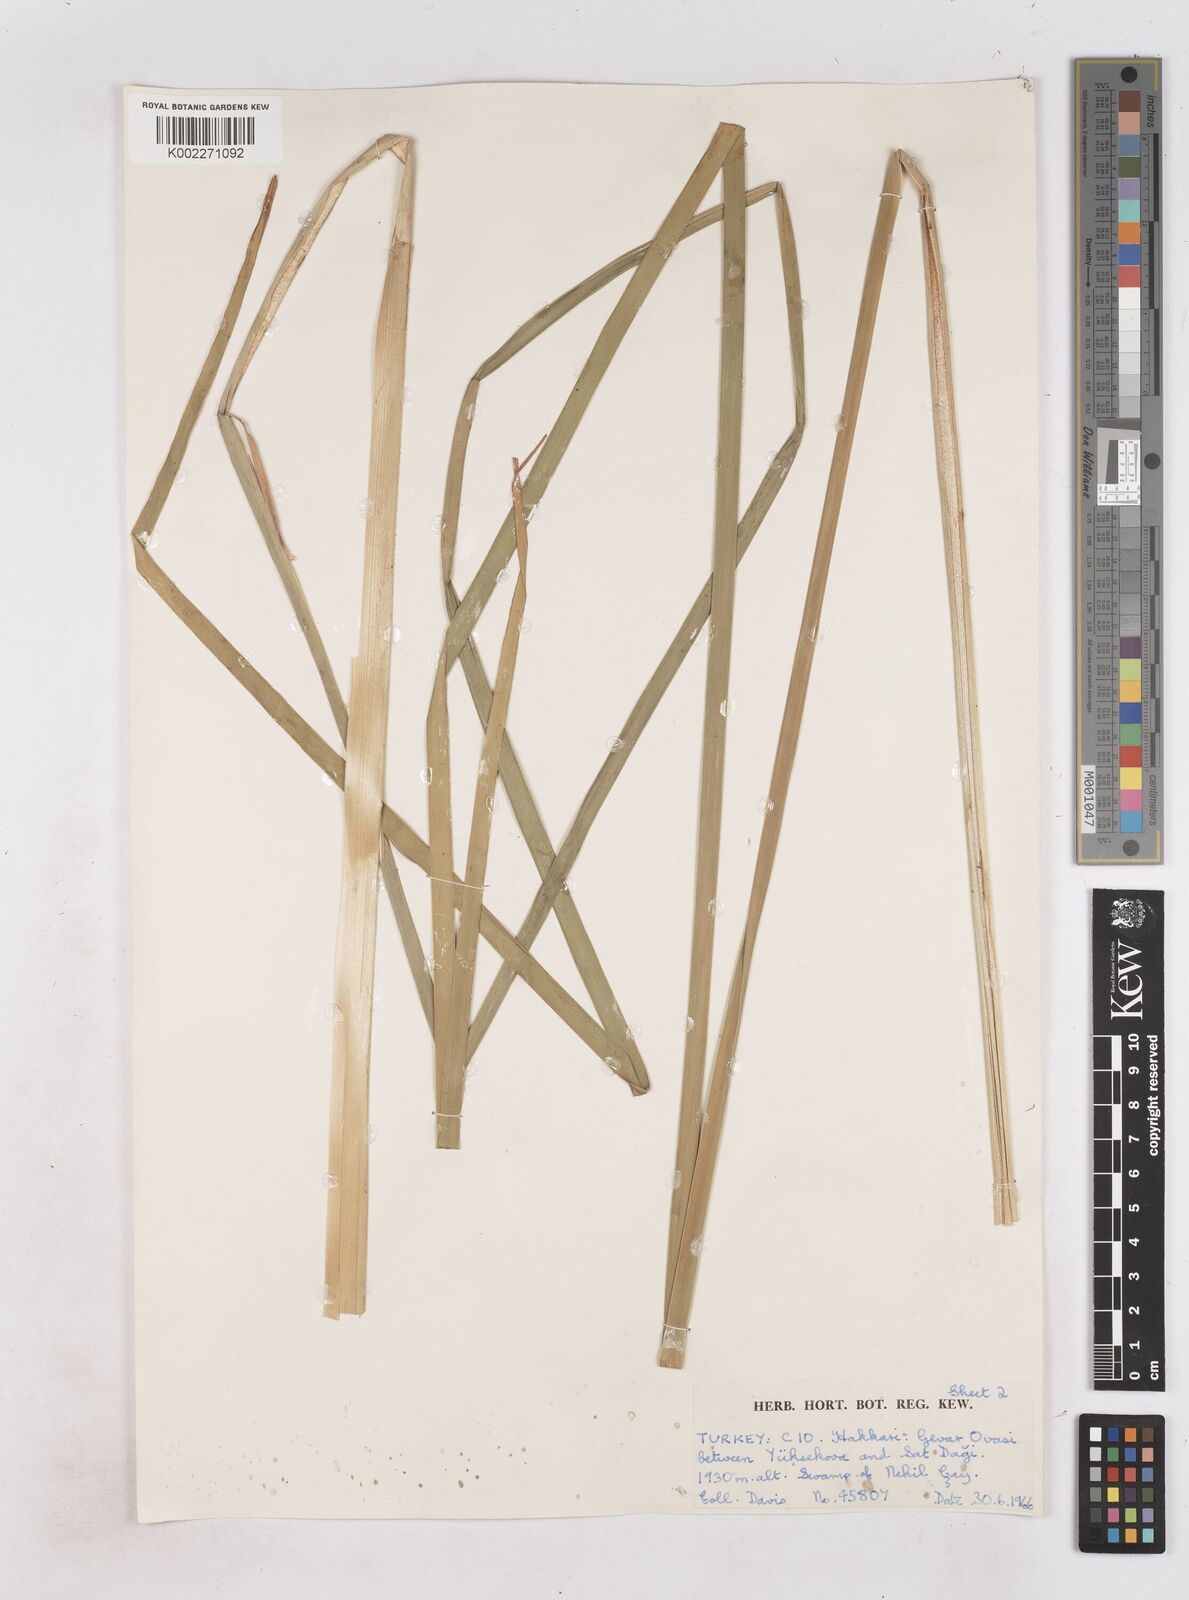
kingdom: Plantae
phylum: Tracheophyta
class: Liliopsida
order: Poales
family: Typhaceae
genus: Typha
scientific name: Typha
